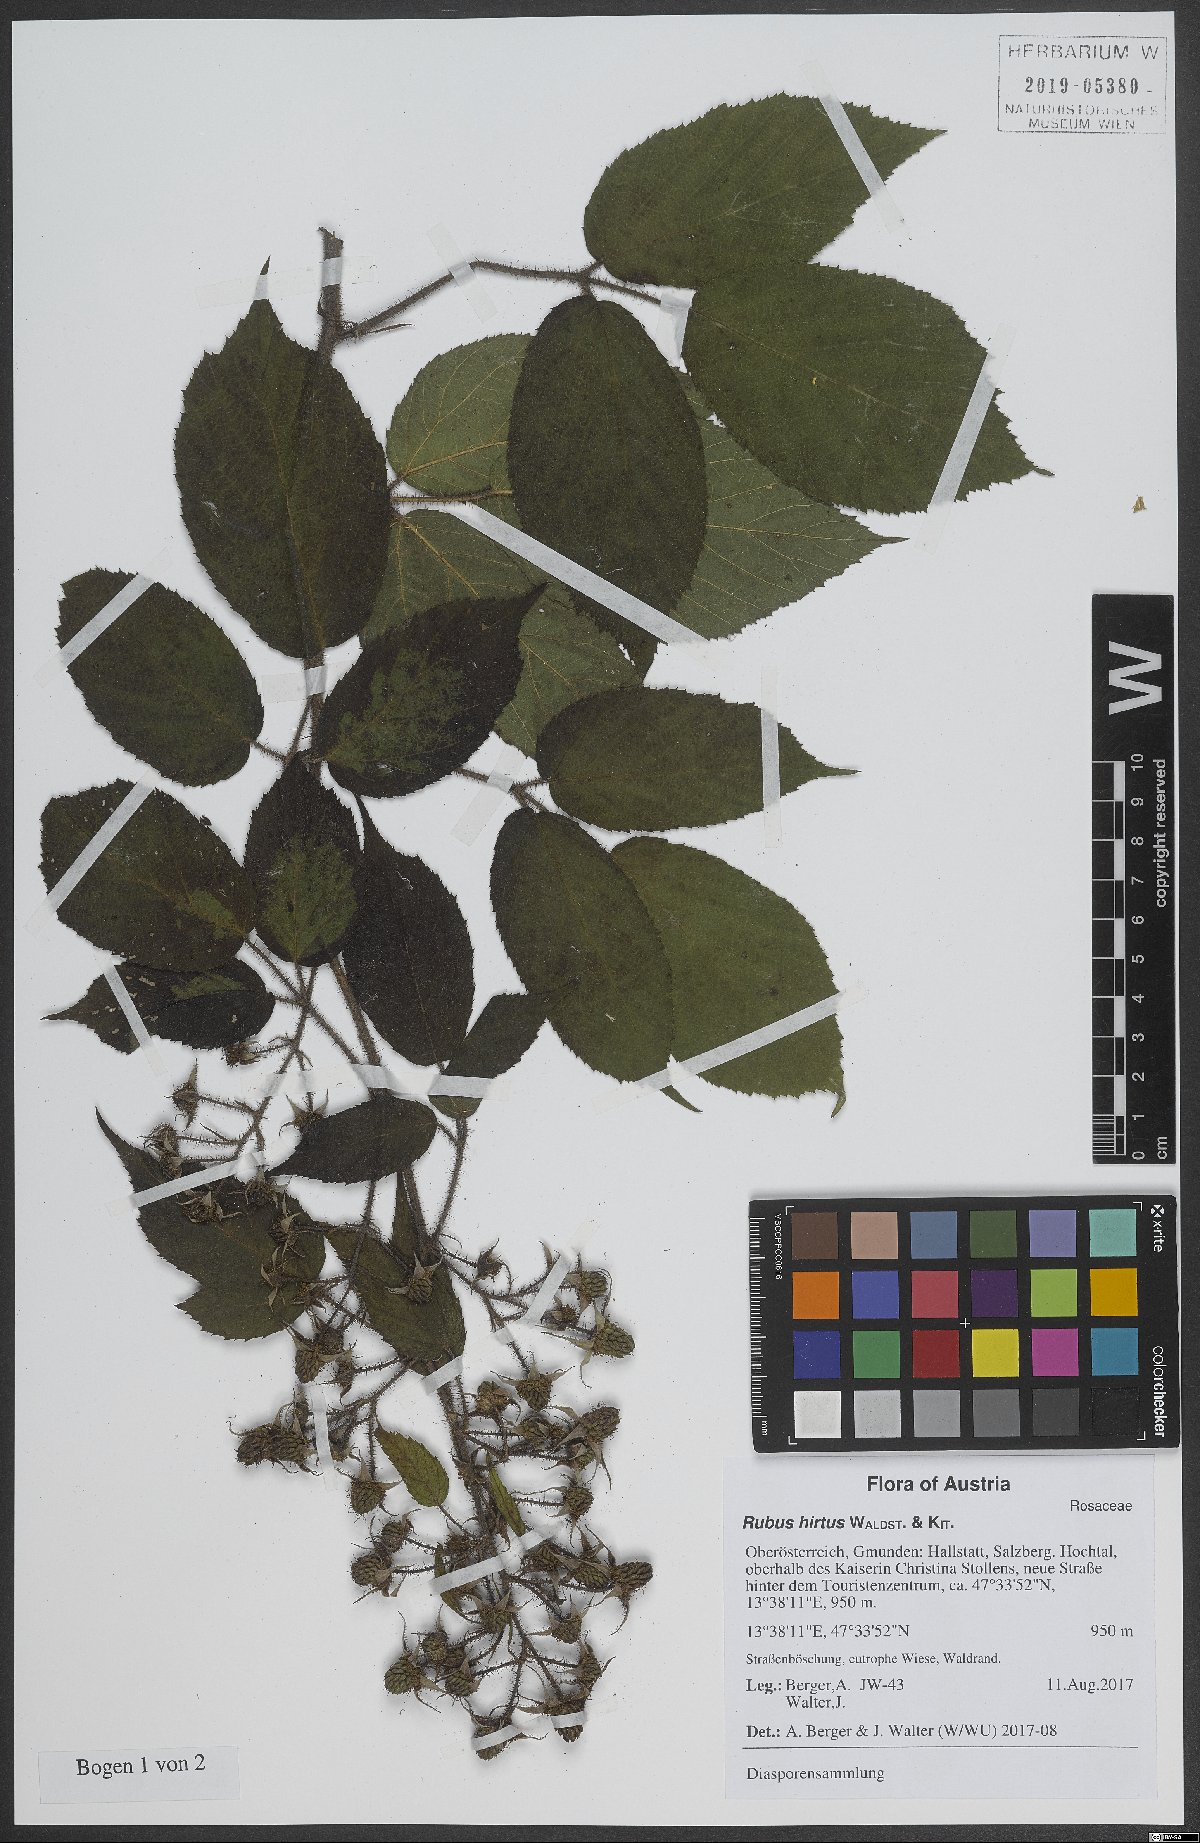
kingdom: Plantae
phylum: Tracheophyta
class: Magnoliopsida
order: Rosales
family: Rosaceae
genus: Rubus
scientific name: Rubus hirtus
